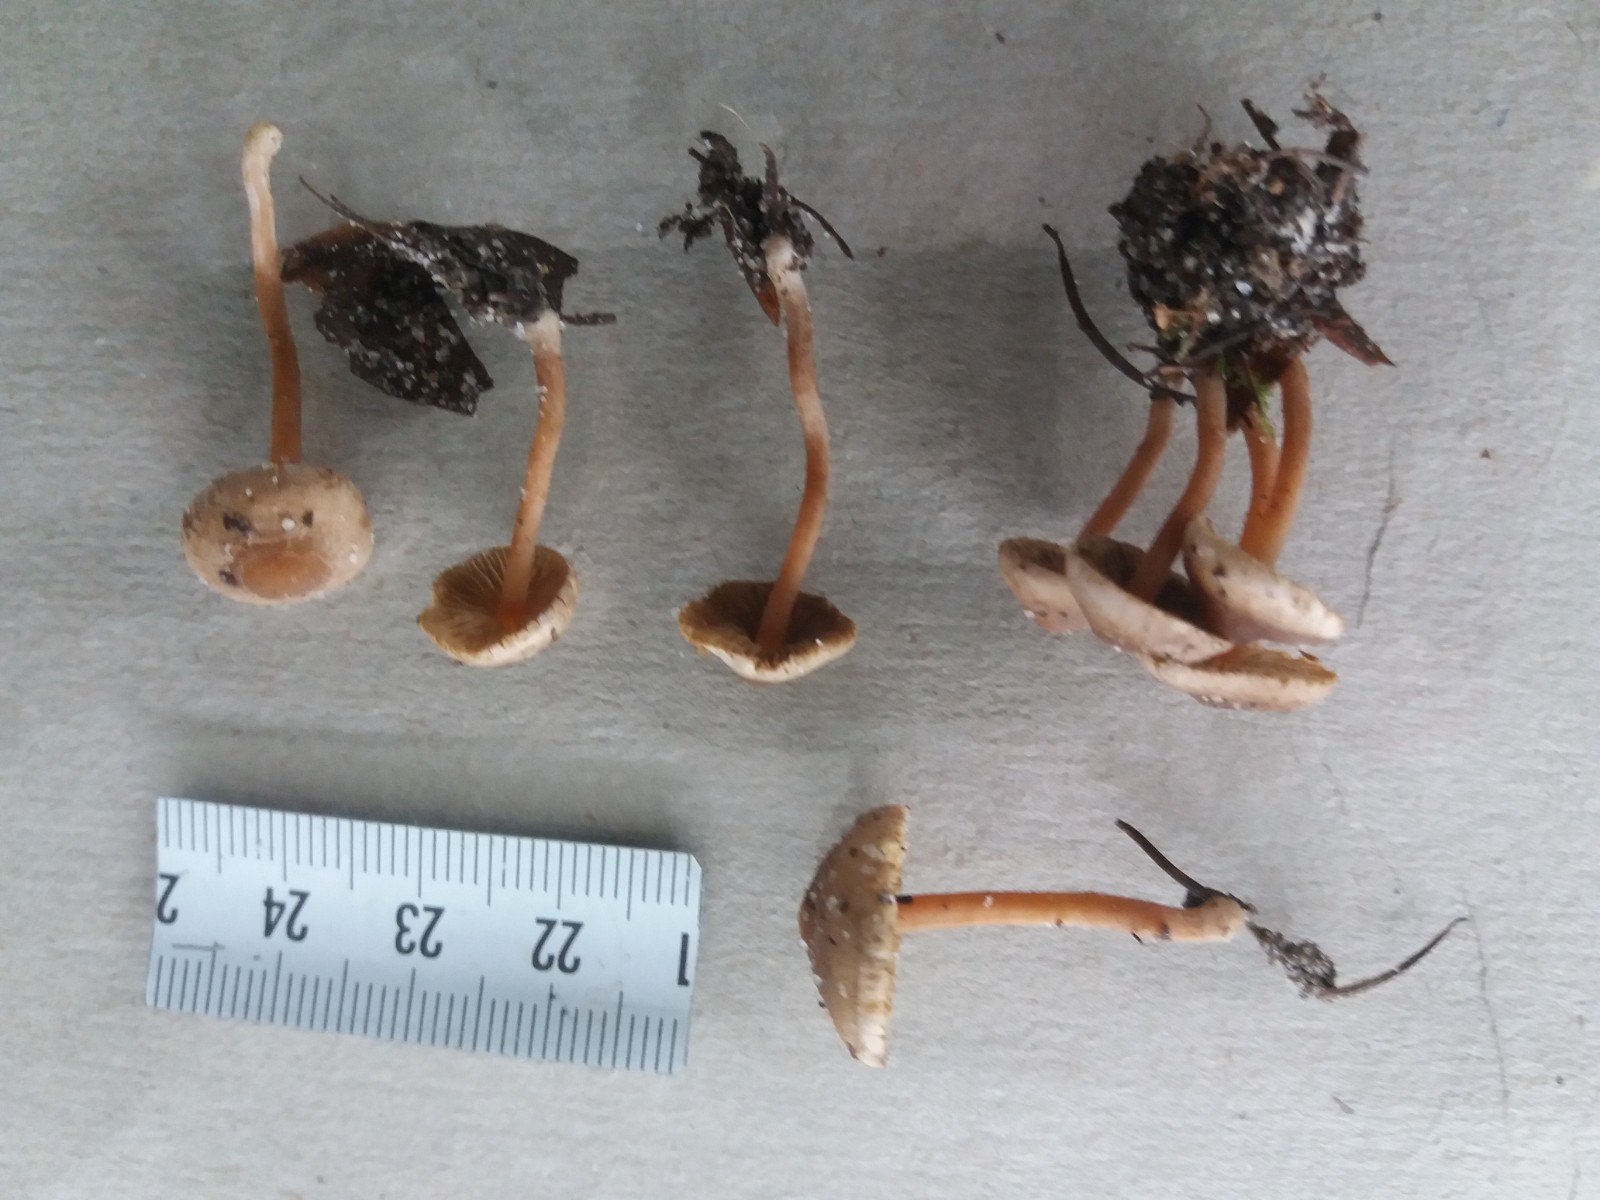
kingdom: Fungi
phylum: Basidiomycota
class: Agaricomycetes
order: Agaricales
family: Inocybaceae
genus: Inocybe
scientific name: Inocybe petiginosa
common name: liden trævlhat
